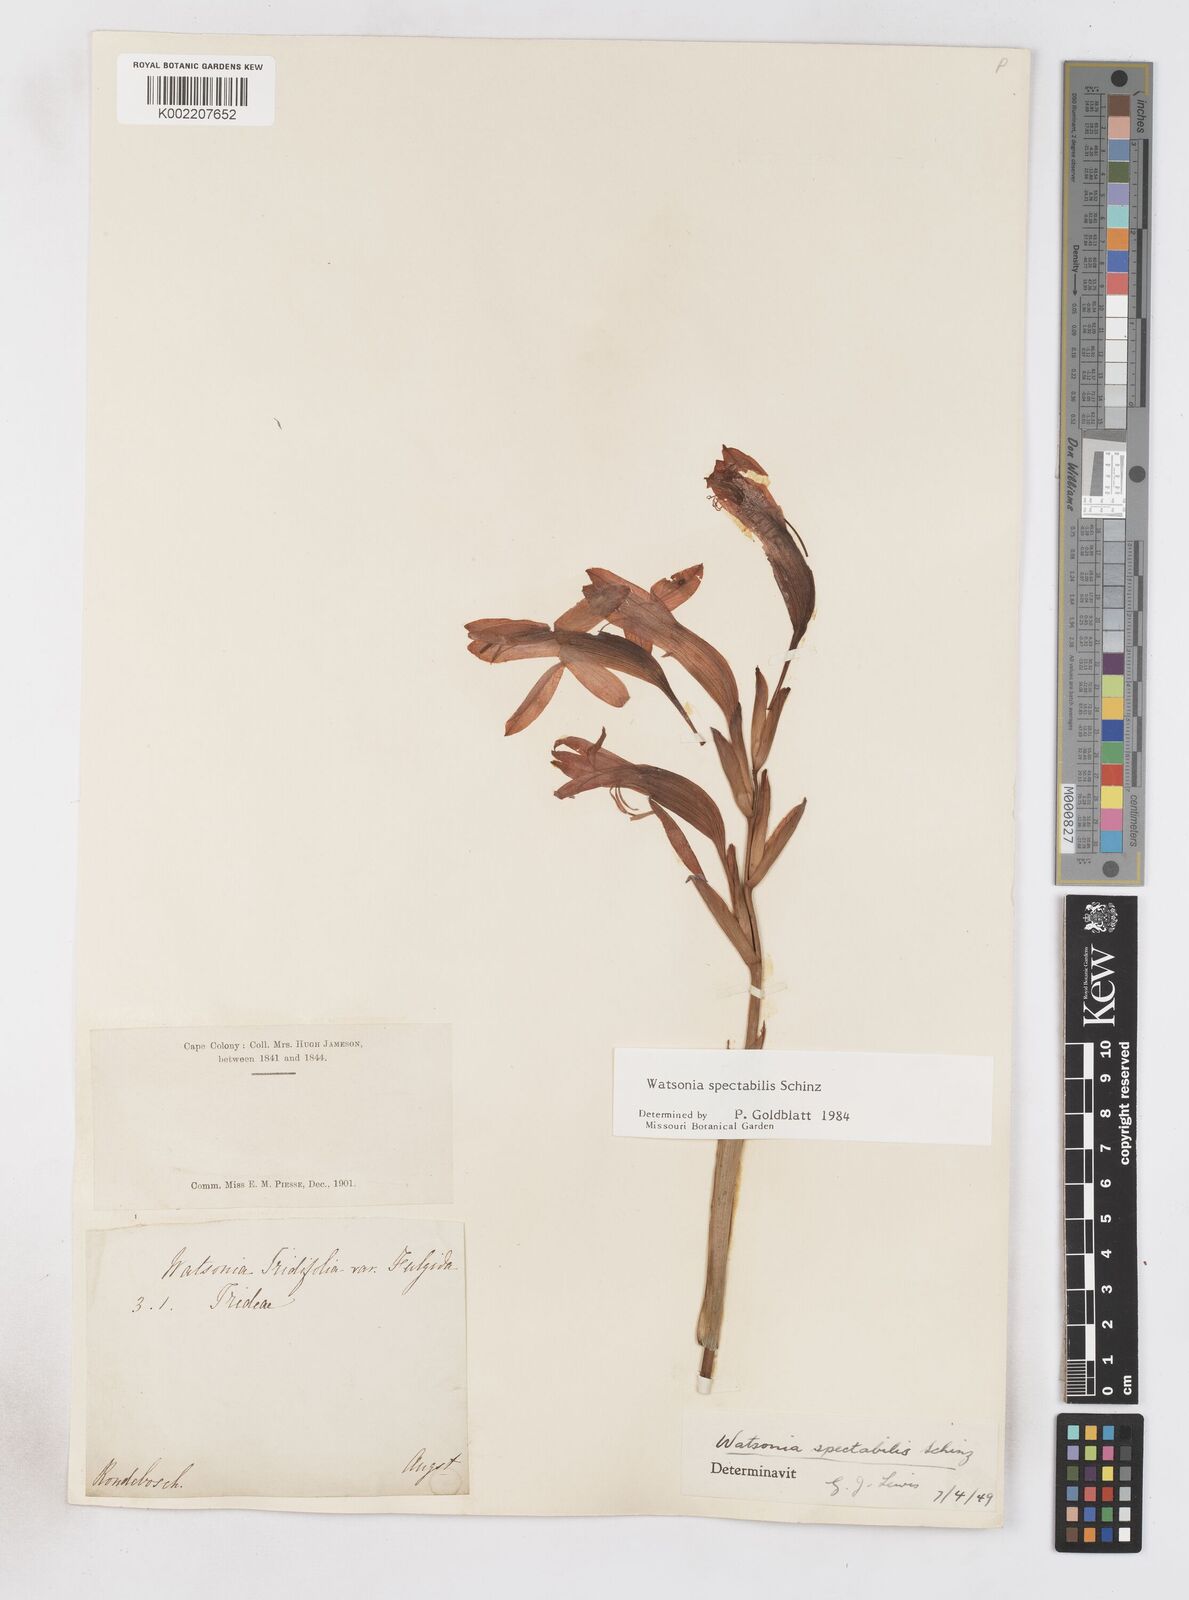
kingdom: Plantae
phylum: Tracheophyta
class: Liliopsida
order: Asparagales
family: Iridaceae
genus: Watsonia
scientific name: Watsonia spectabilis
